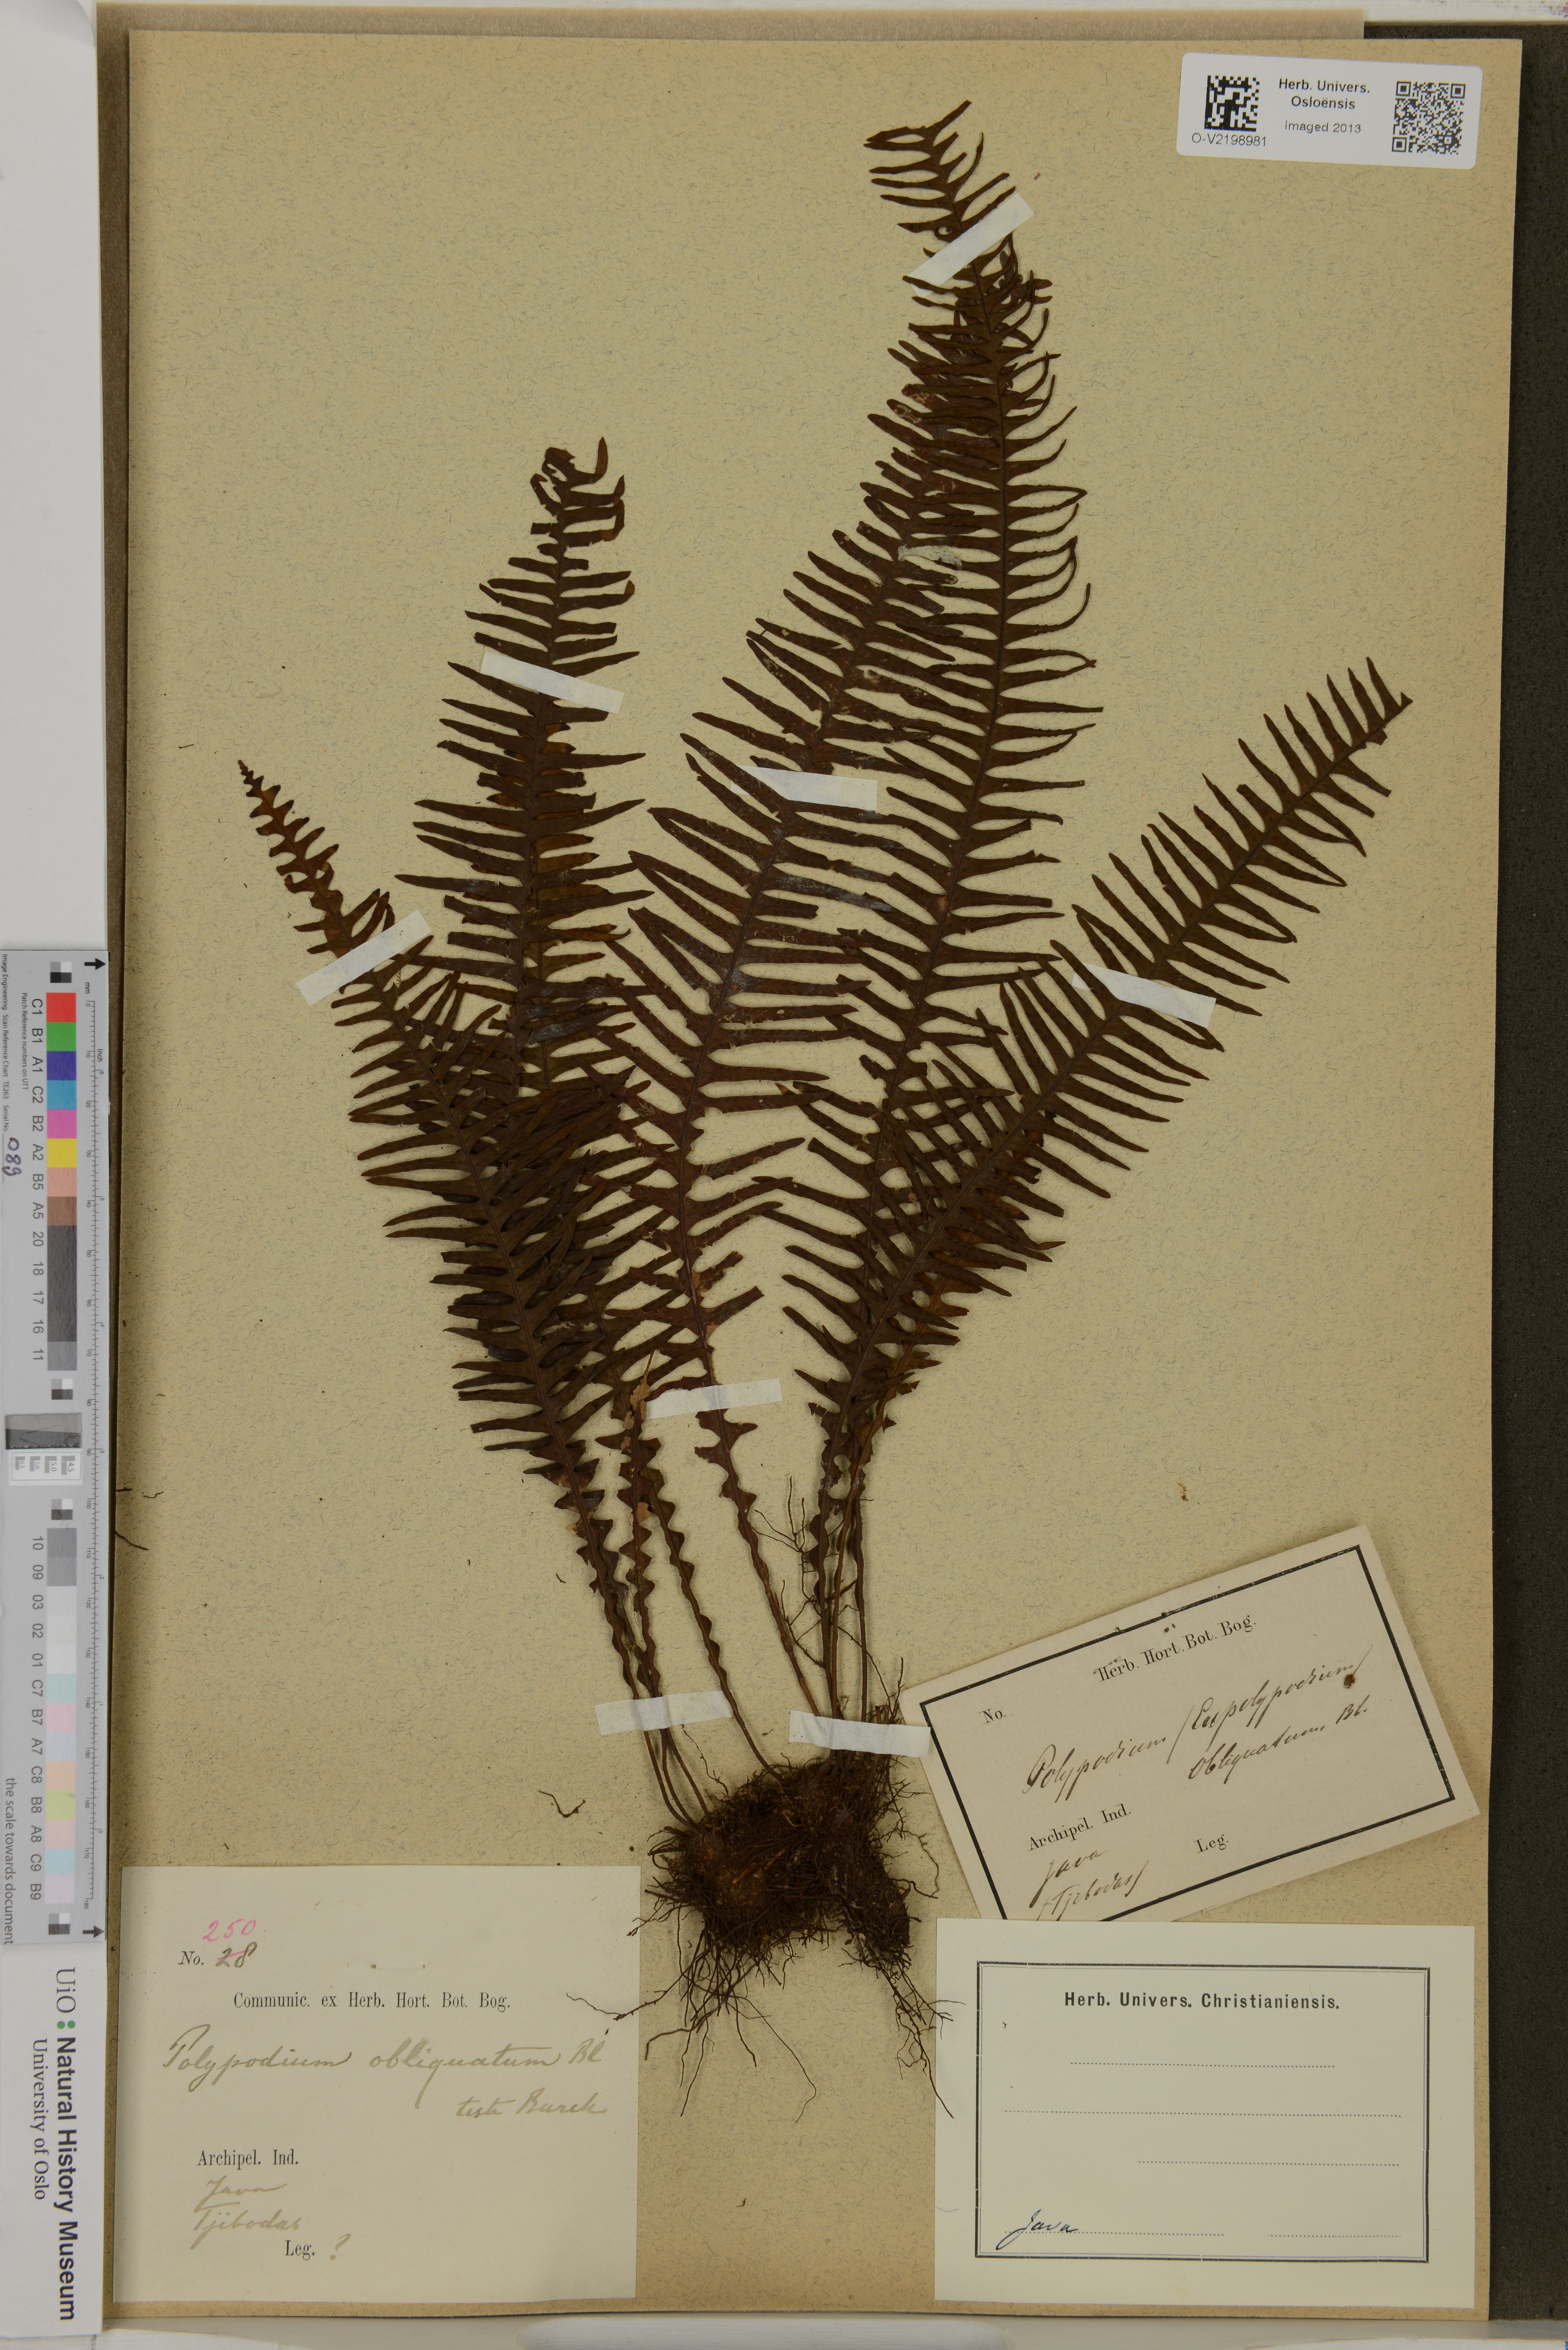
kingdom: Plantae
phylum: Tracheophyta
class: Polypodiopsida
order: Polypodiales
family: Polypodiaceae
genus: Prosaptia
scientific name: Prosaptia obliquata
